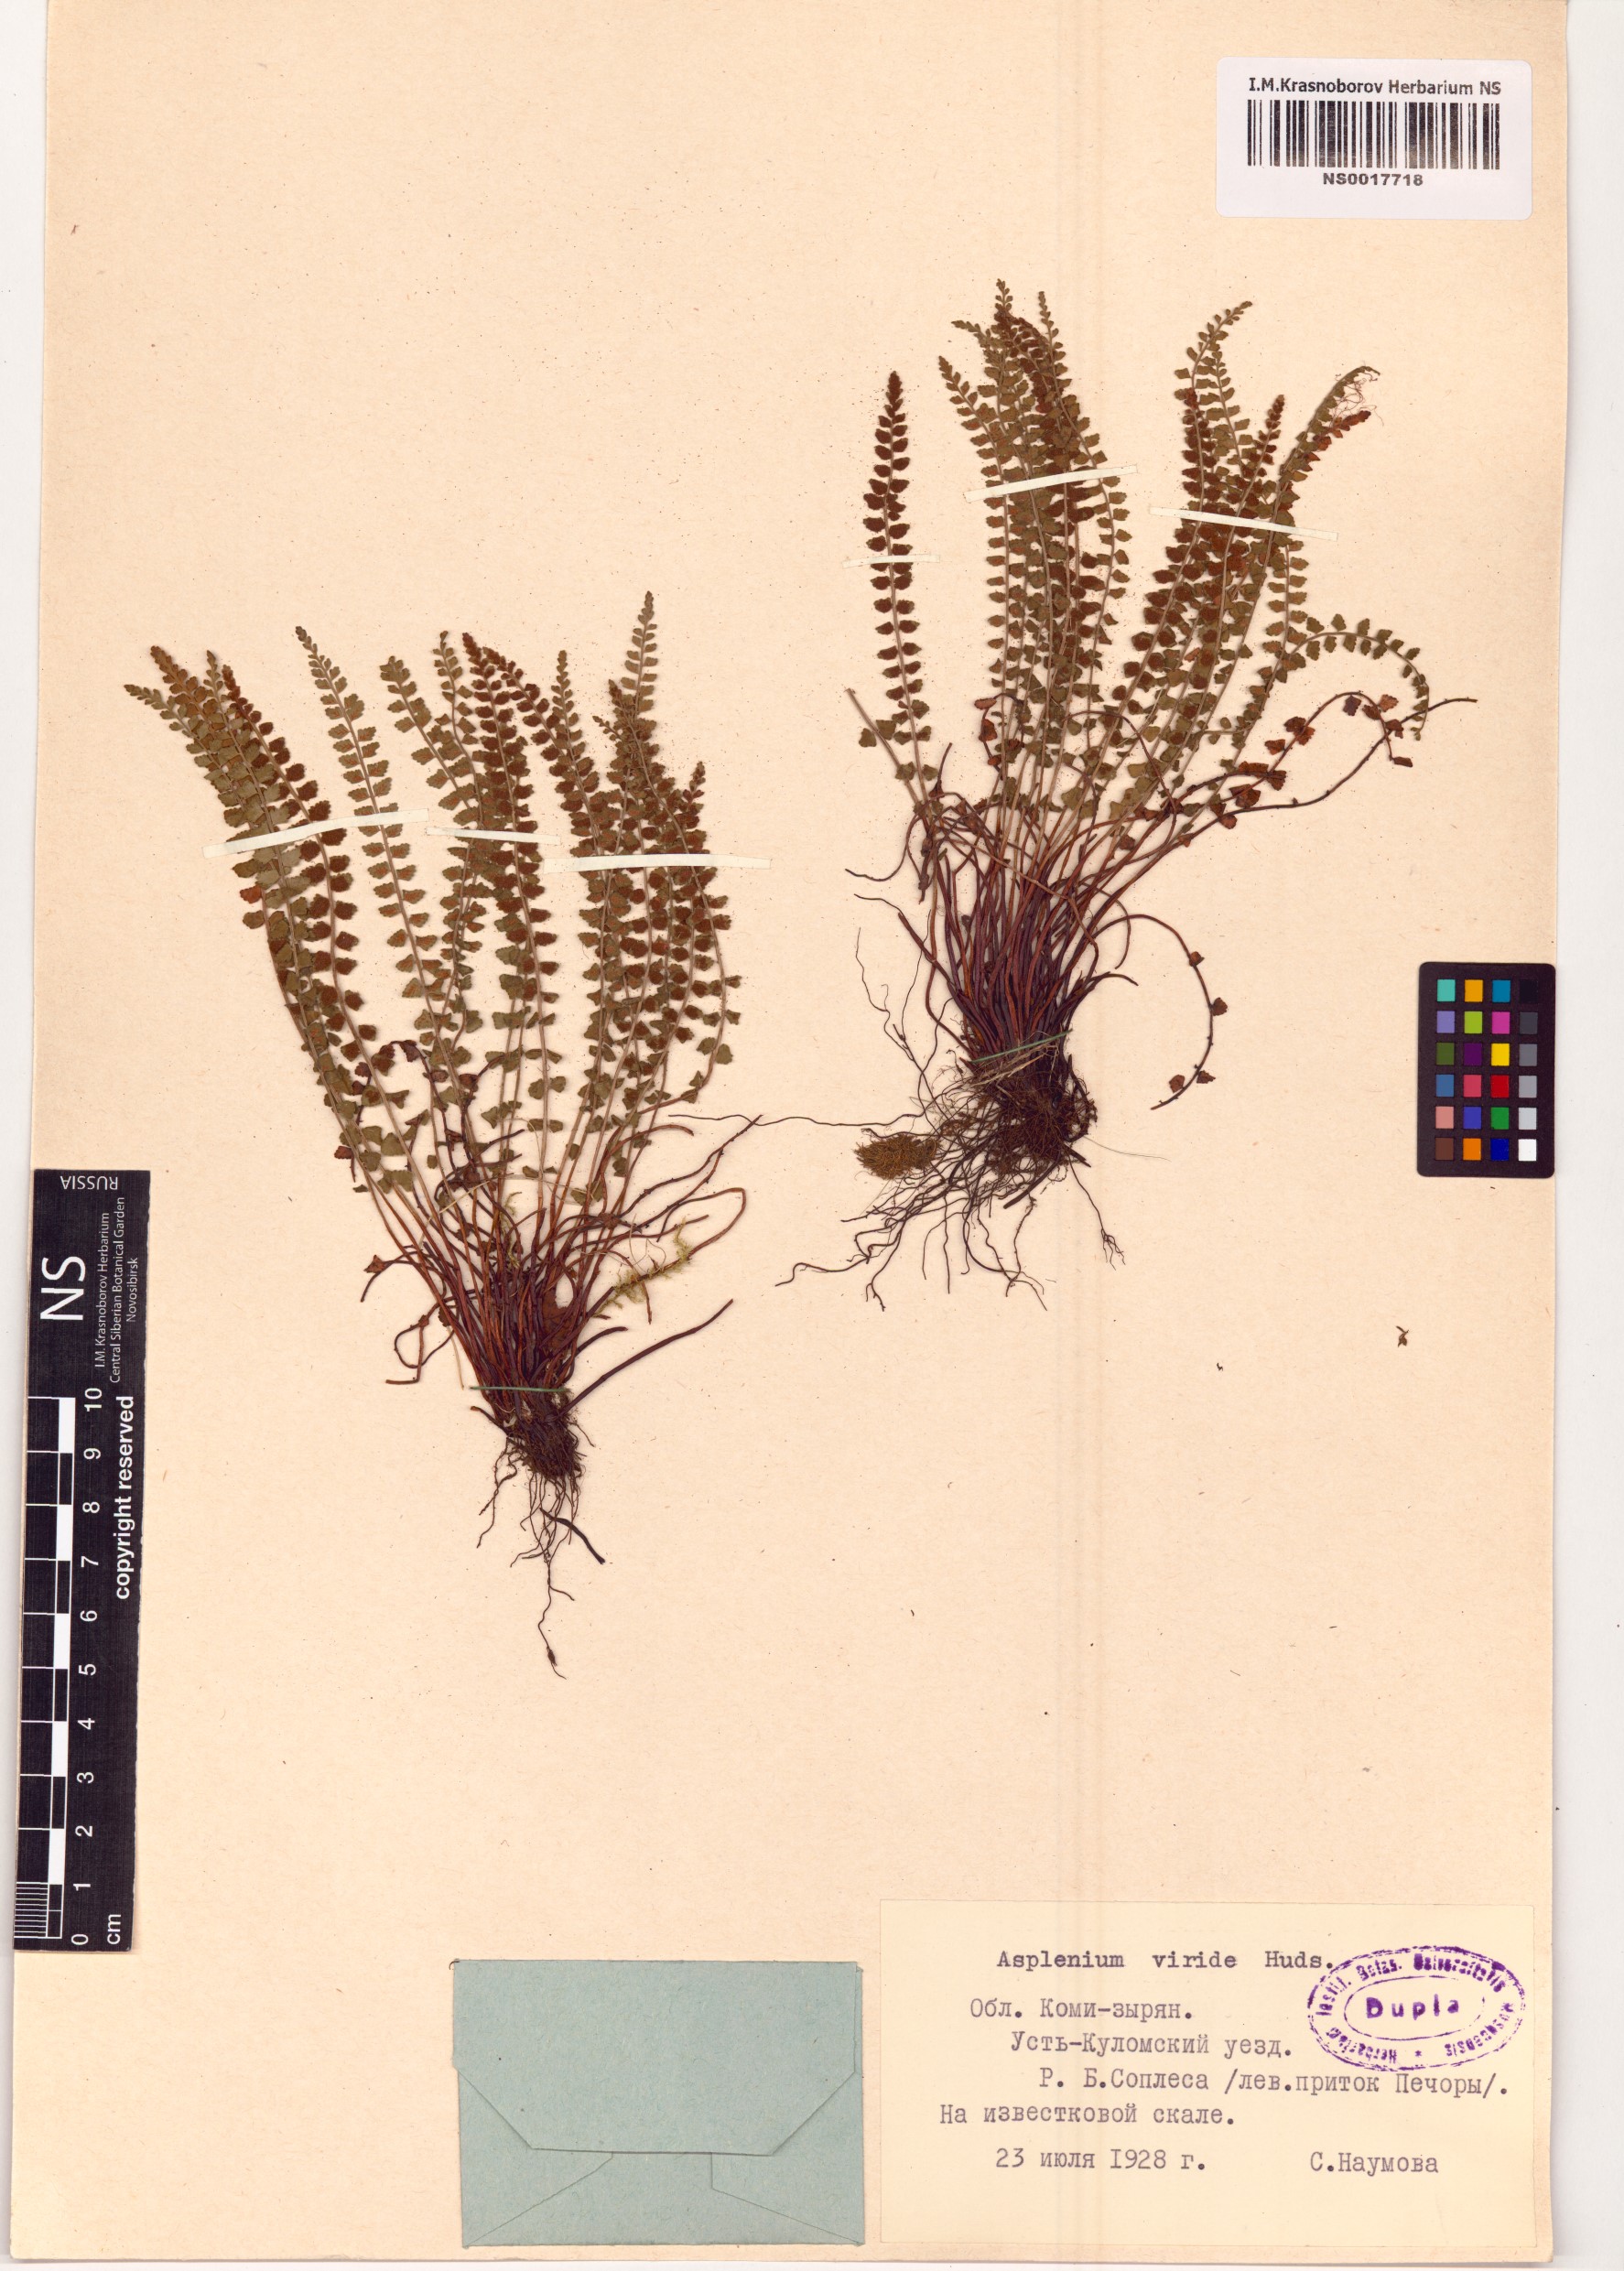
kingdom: Plantae
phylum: Tracheophyta
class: Polypodiopsida
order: Polypodiales
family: Aspleniaceae
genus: Asplenium
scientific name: Asplenium viride
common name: Green spleenwort
